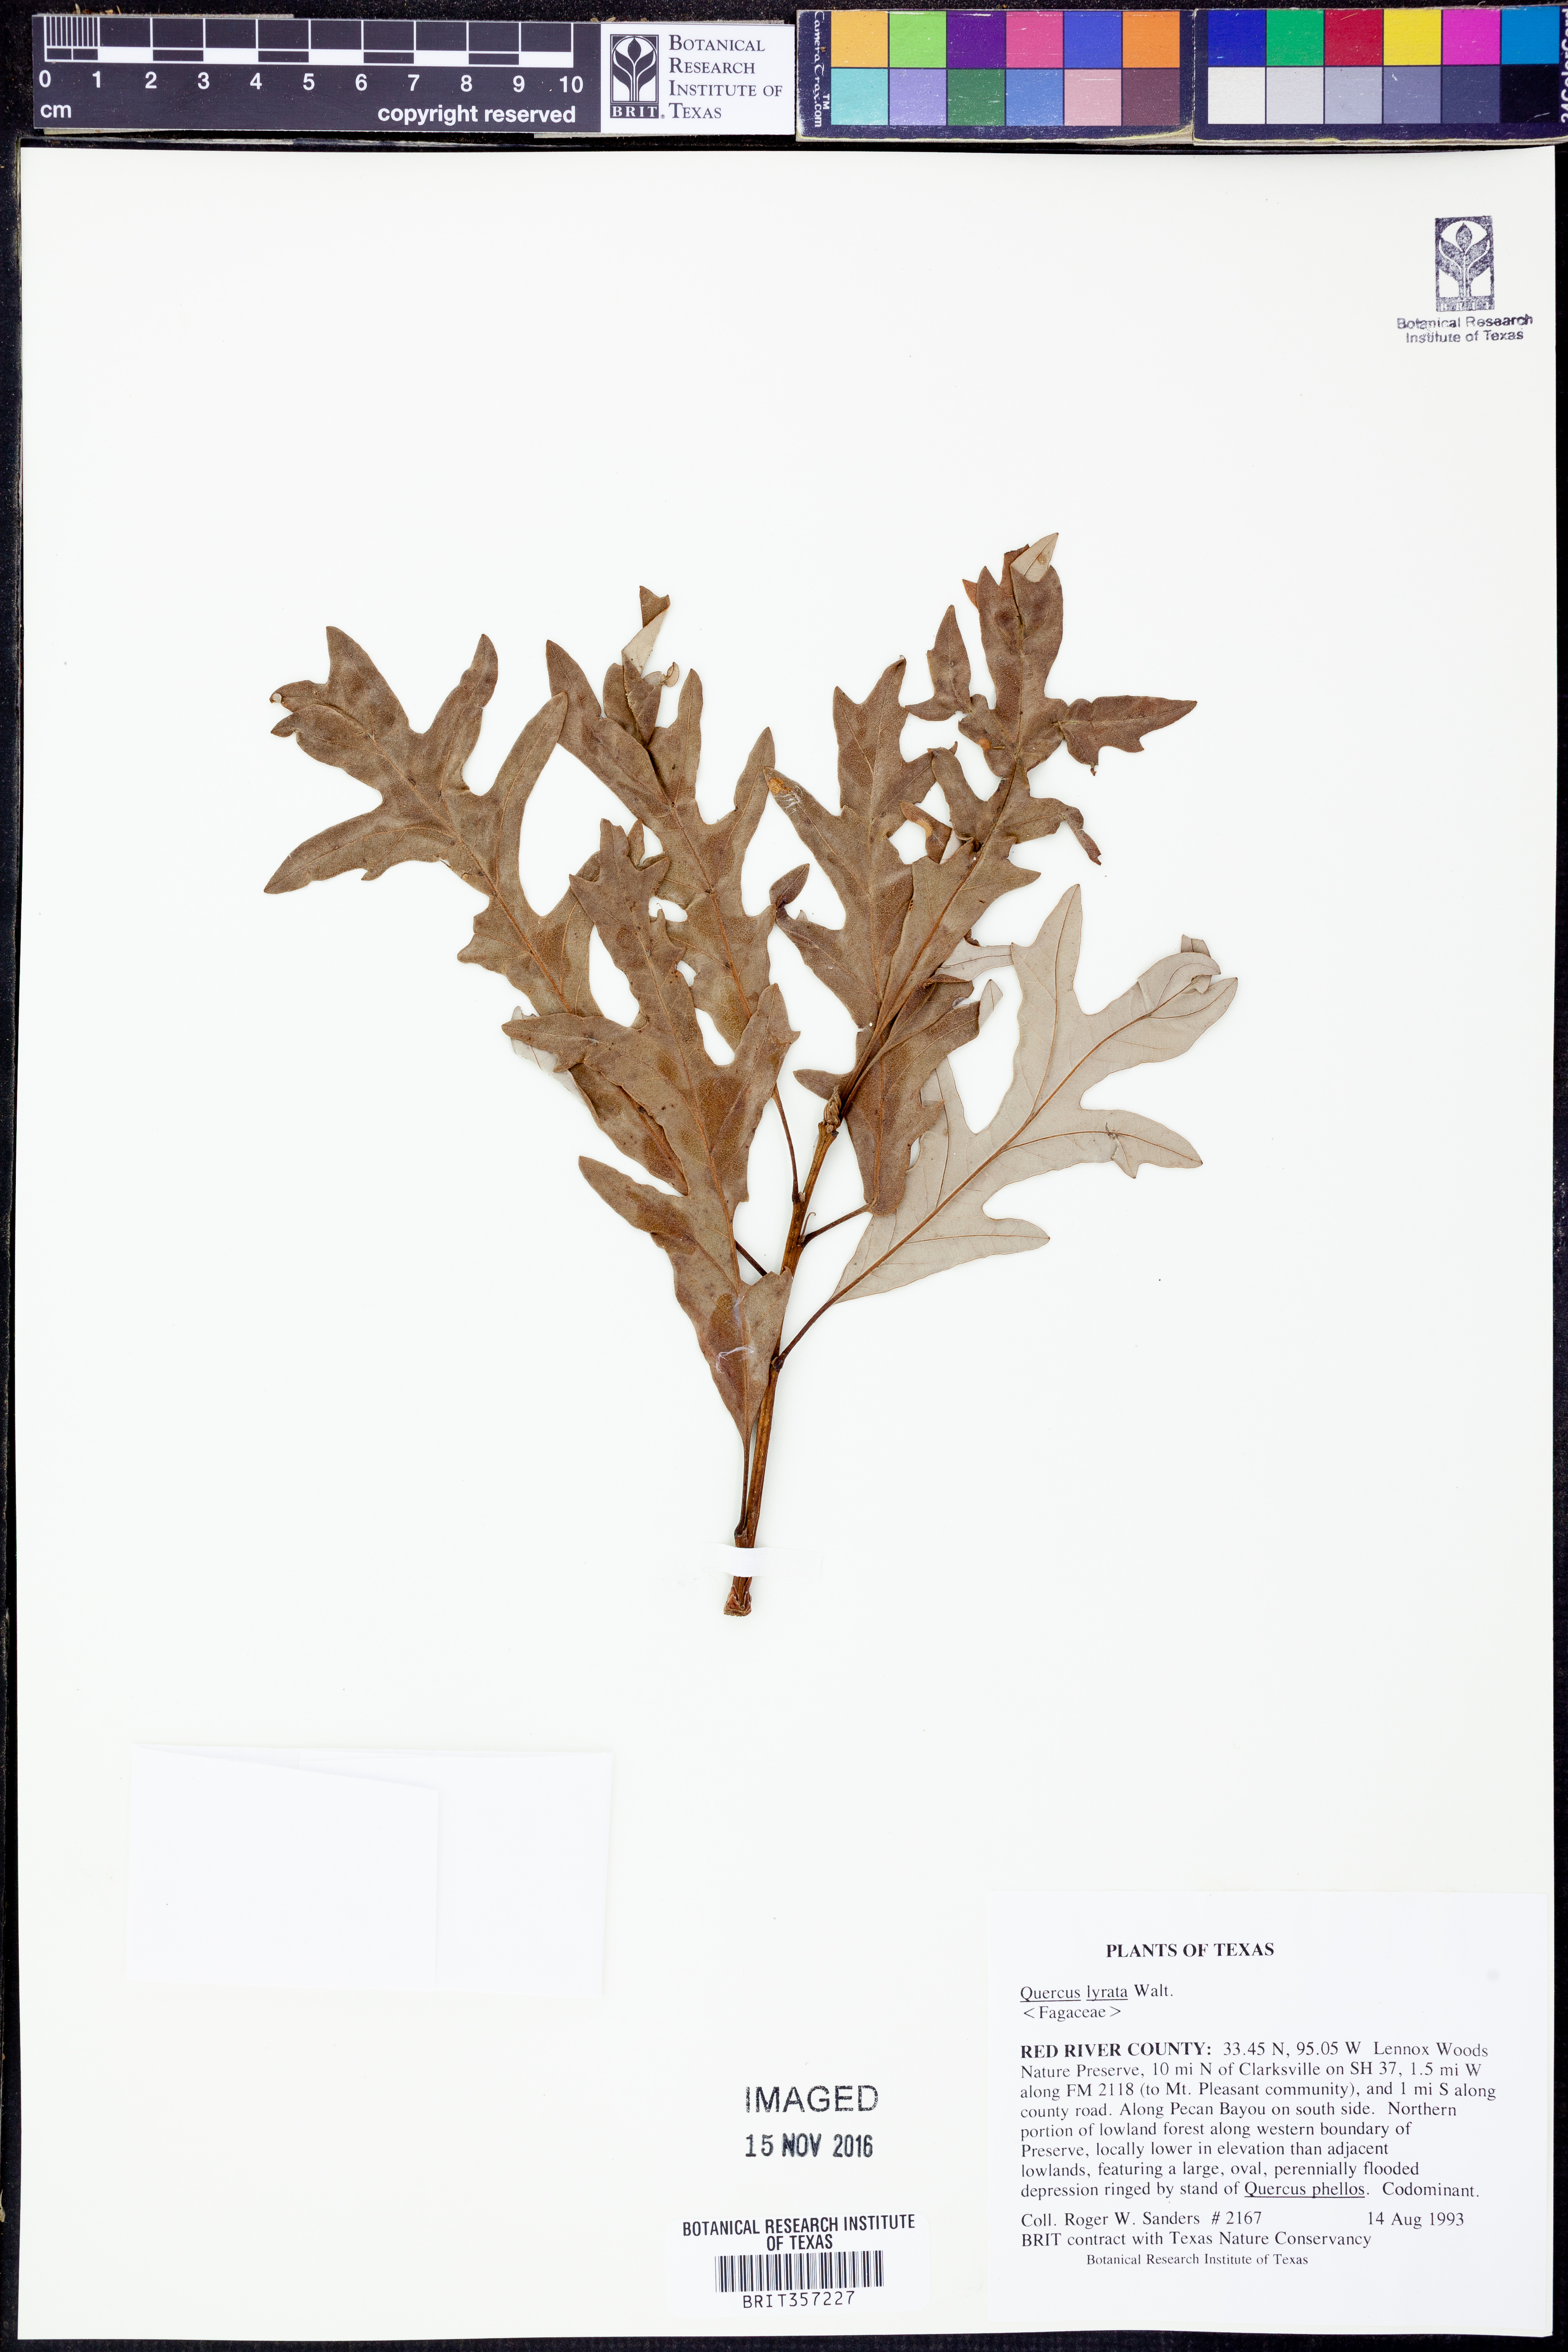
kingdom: Plantae
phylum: Tracheophyta
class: Magnoliopsida
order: Fagales
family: Fagaceae
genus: Quercus
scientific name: Quercus lyrata
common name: Overcup oak
